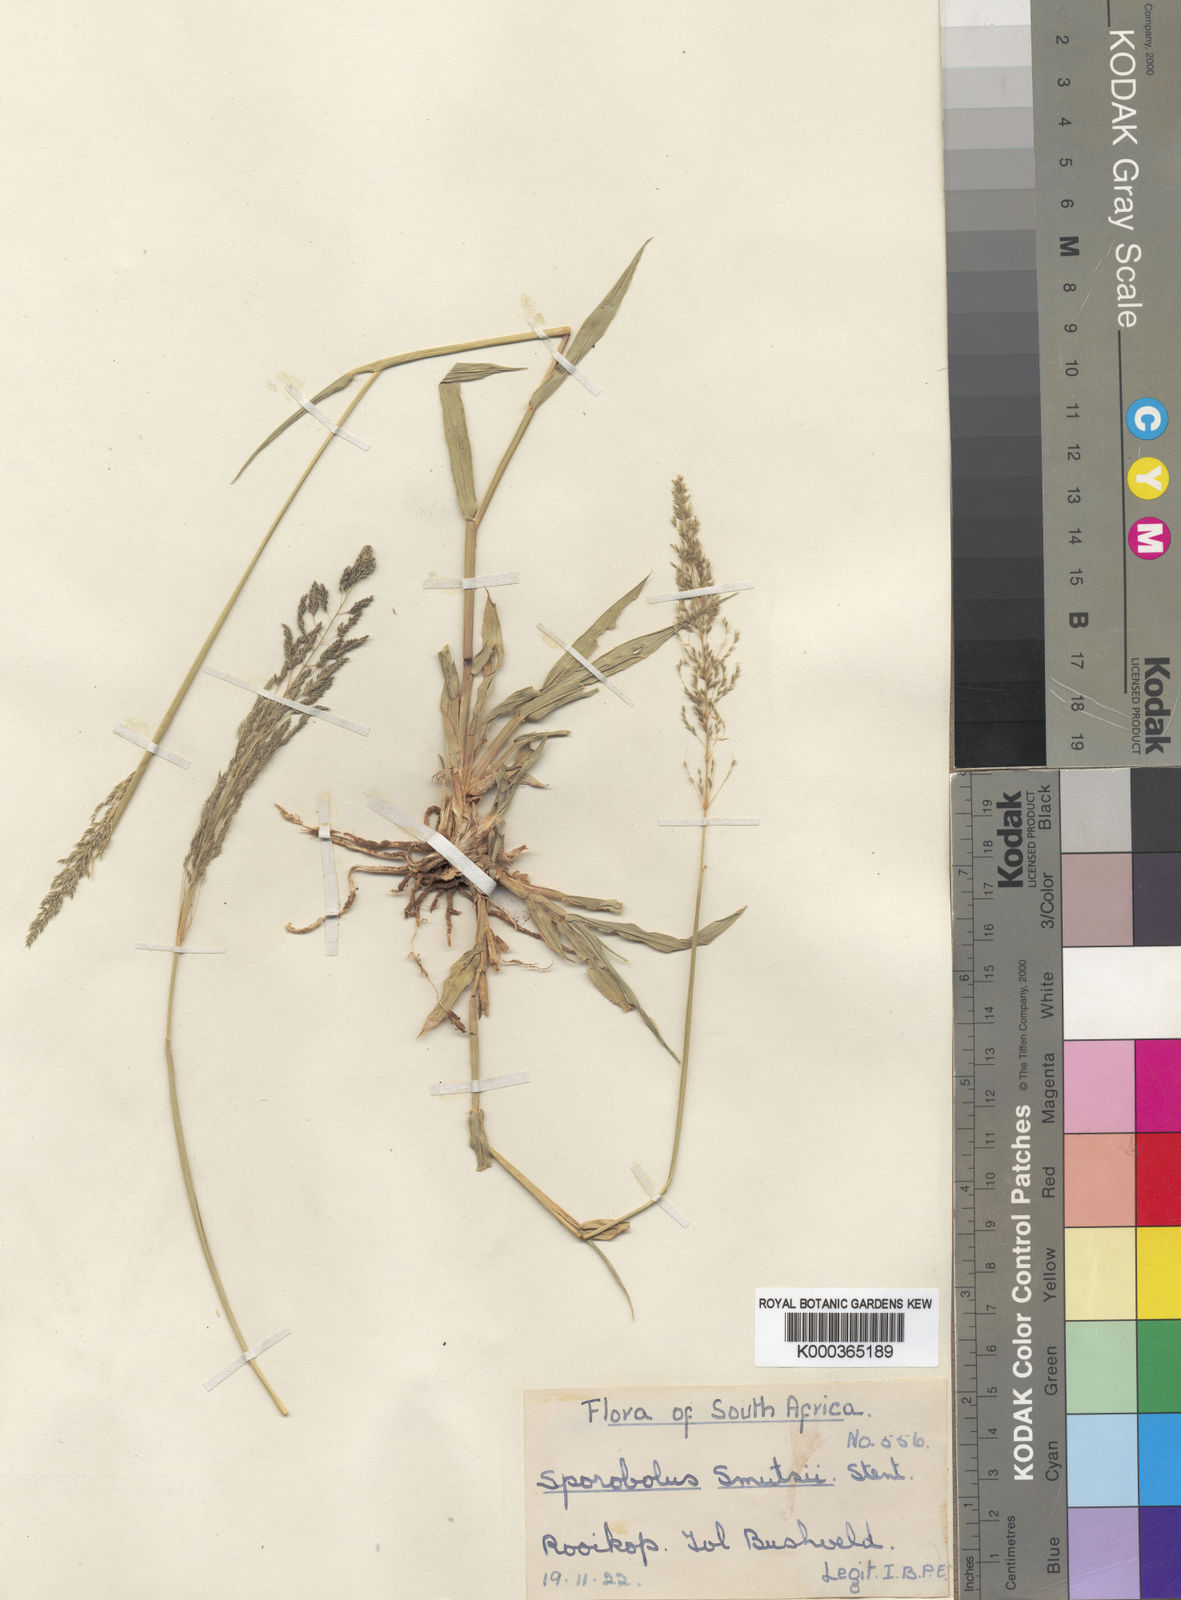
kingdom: Plantae
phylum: Tracheophyta
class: Liliopsida
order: Poales
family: Poaceae
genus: Sporobolus
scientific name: Sporobolus ioclados
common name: Pan dropseed
